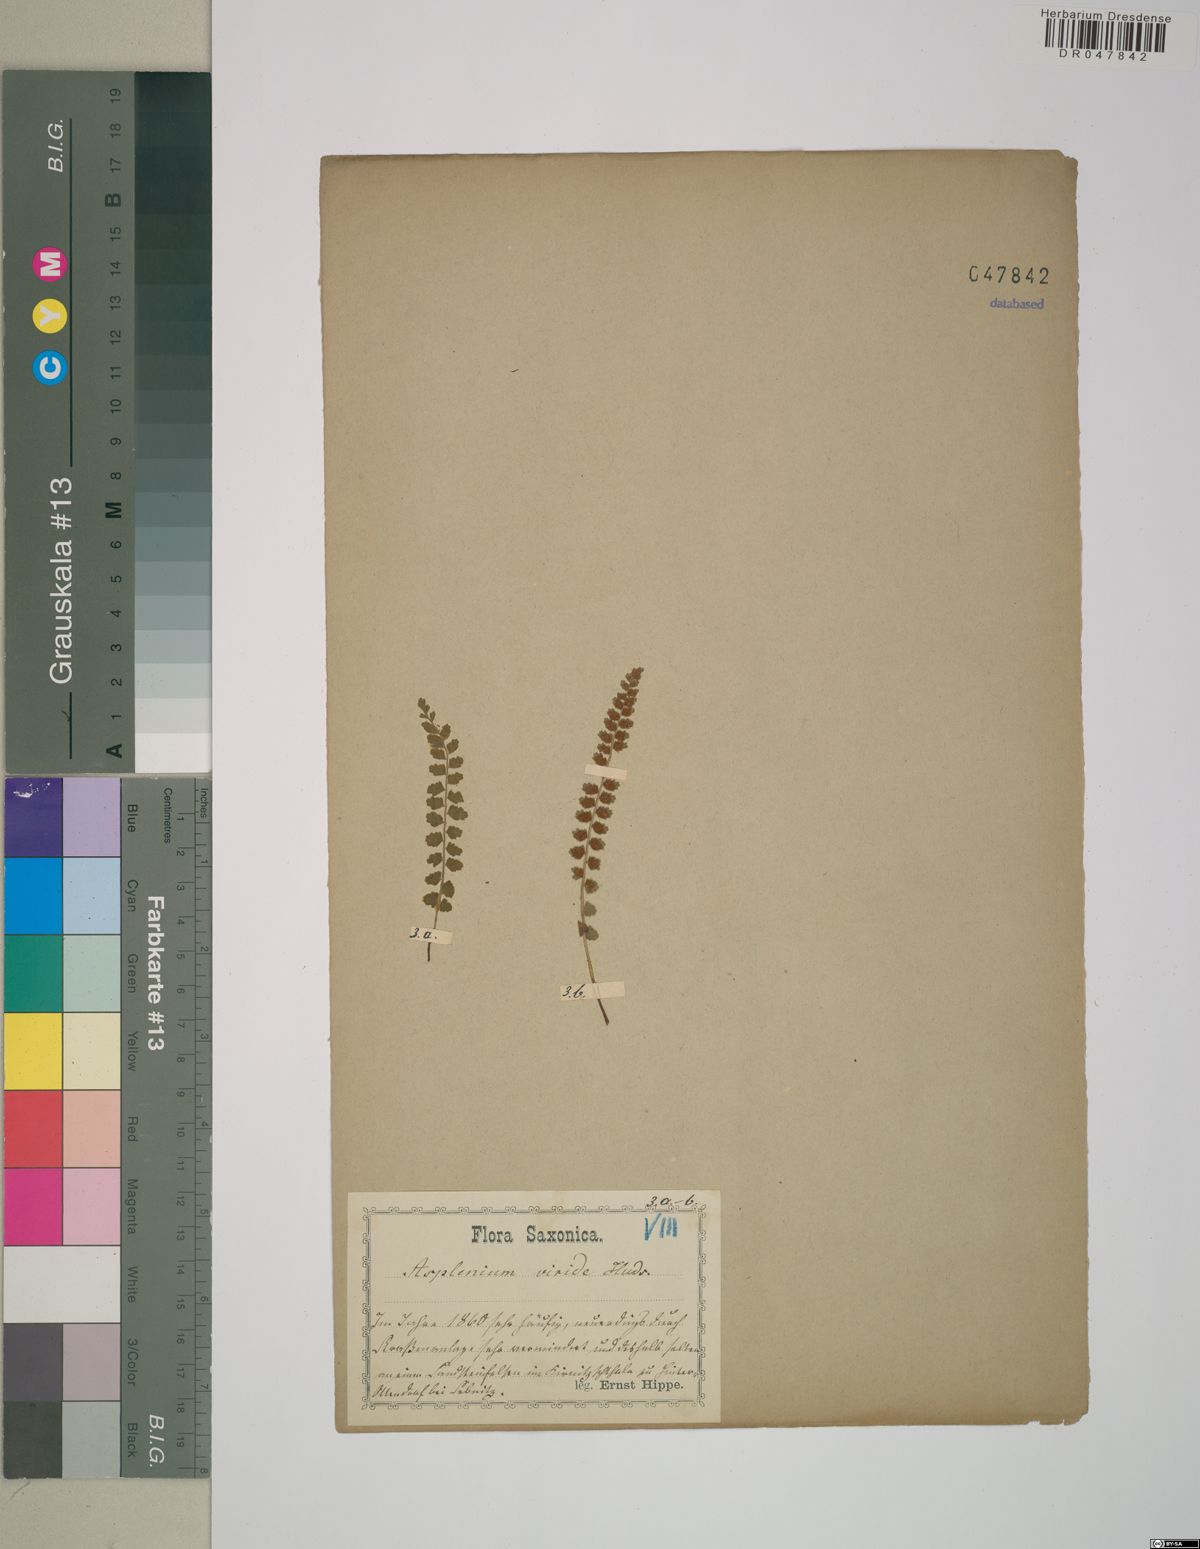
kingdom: Plantae
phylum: Tracheophyta
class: Polypodiopsida
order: Polypodiales
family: Aspleniaceae
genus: Asplenium
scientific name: Asplenium viride
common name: Green spleenwort
